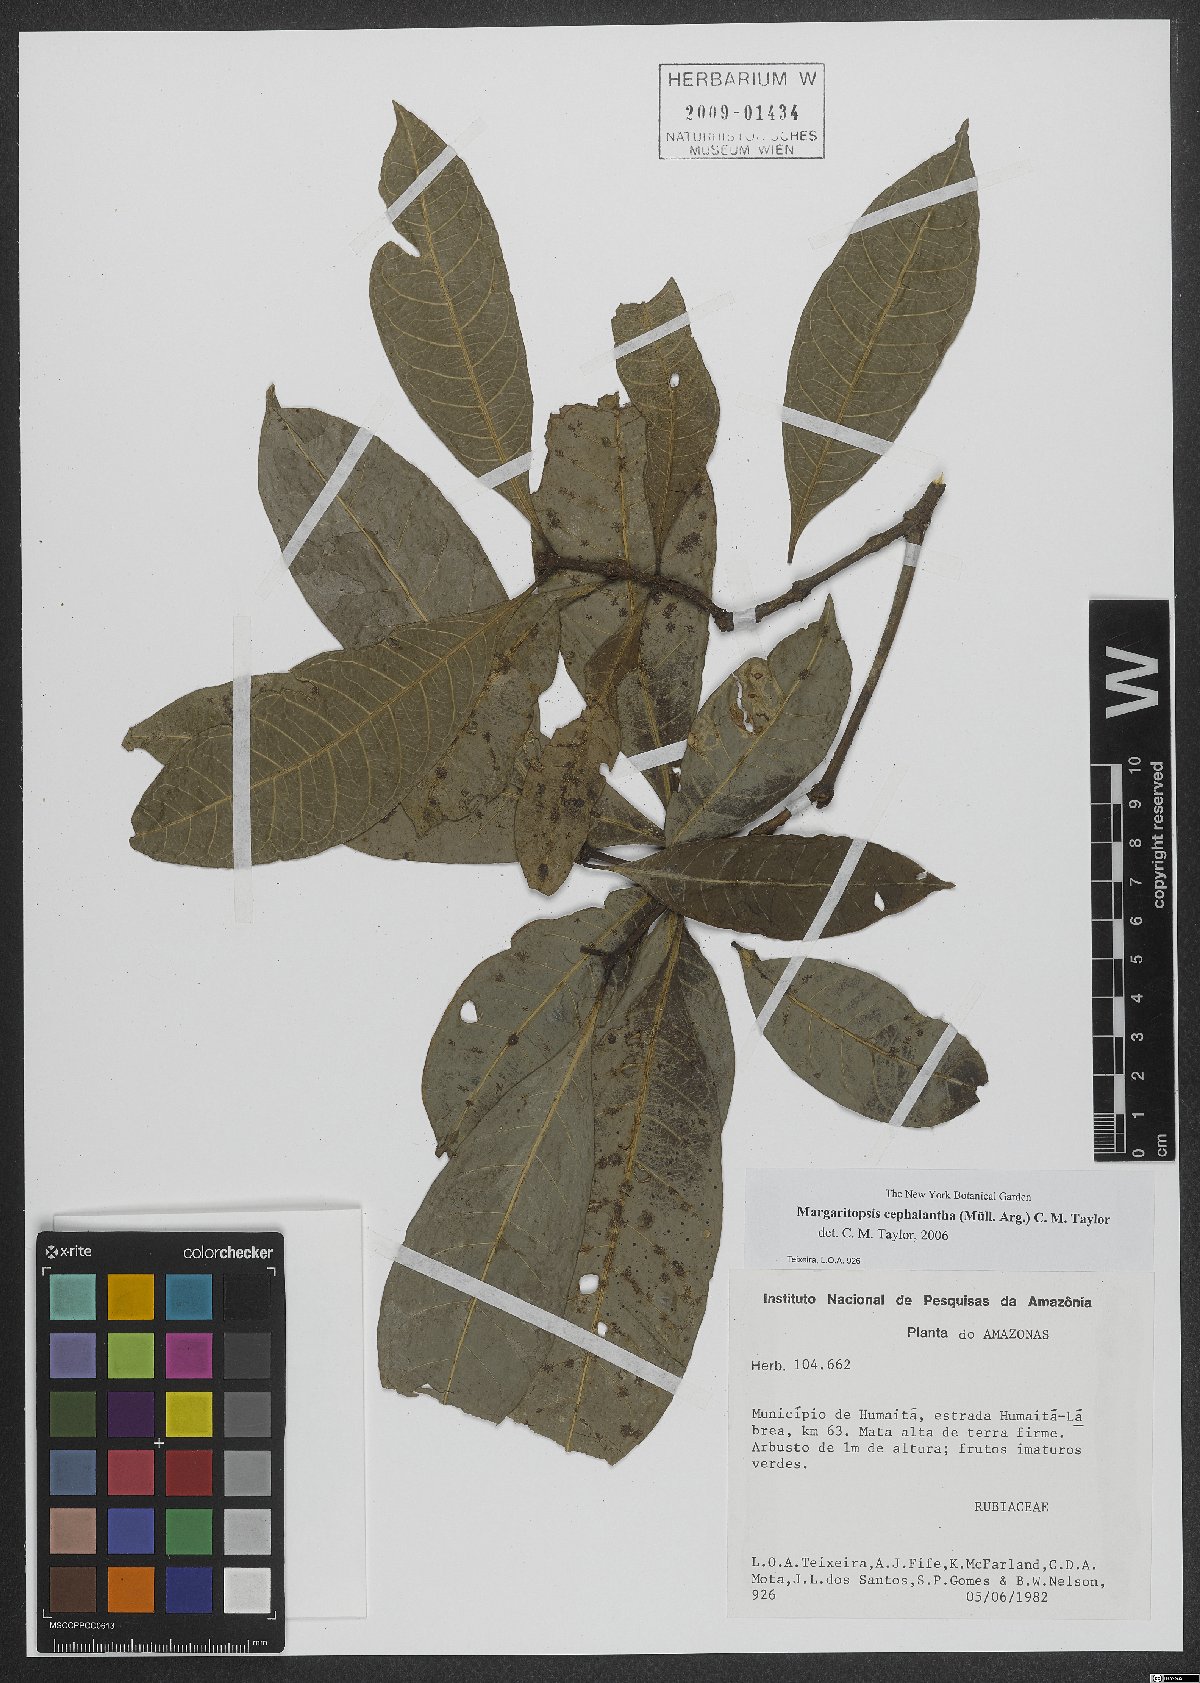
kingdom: Plantae
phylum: Tracheophyta
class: Magnoliopsida
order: Gentianales
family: Rubiaceae
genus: Eumachia
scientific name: Eumachia cephalantha
